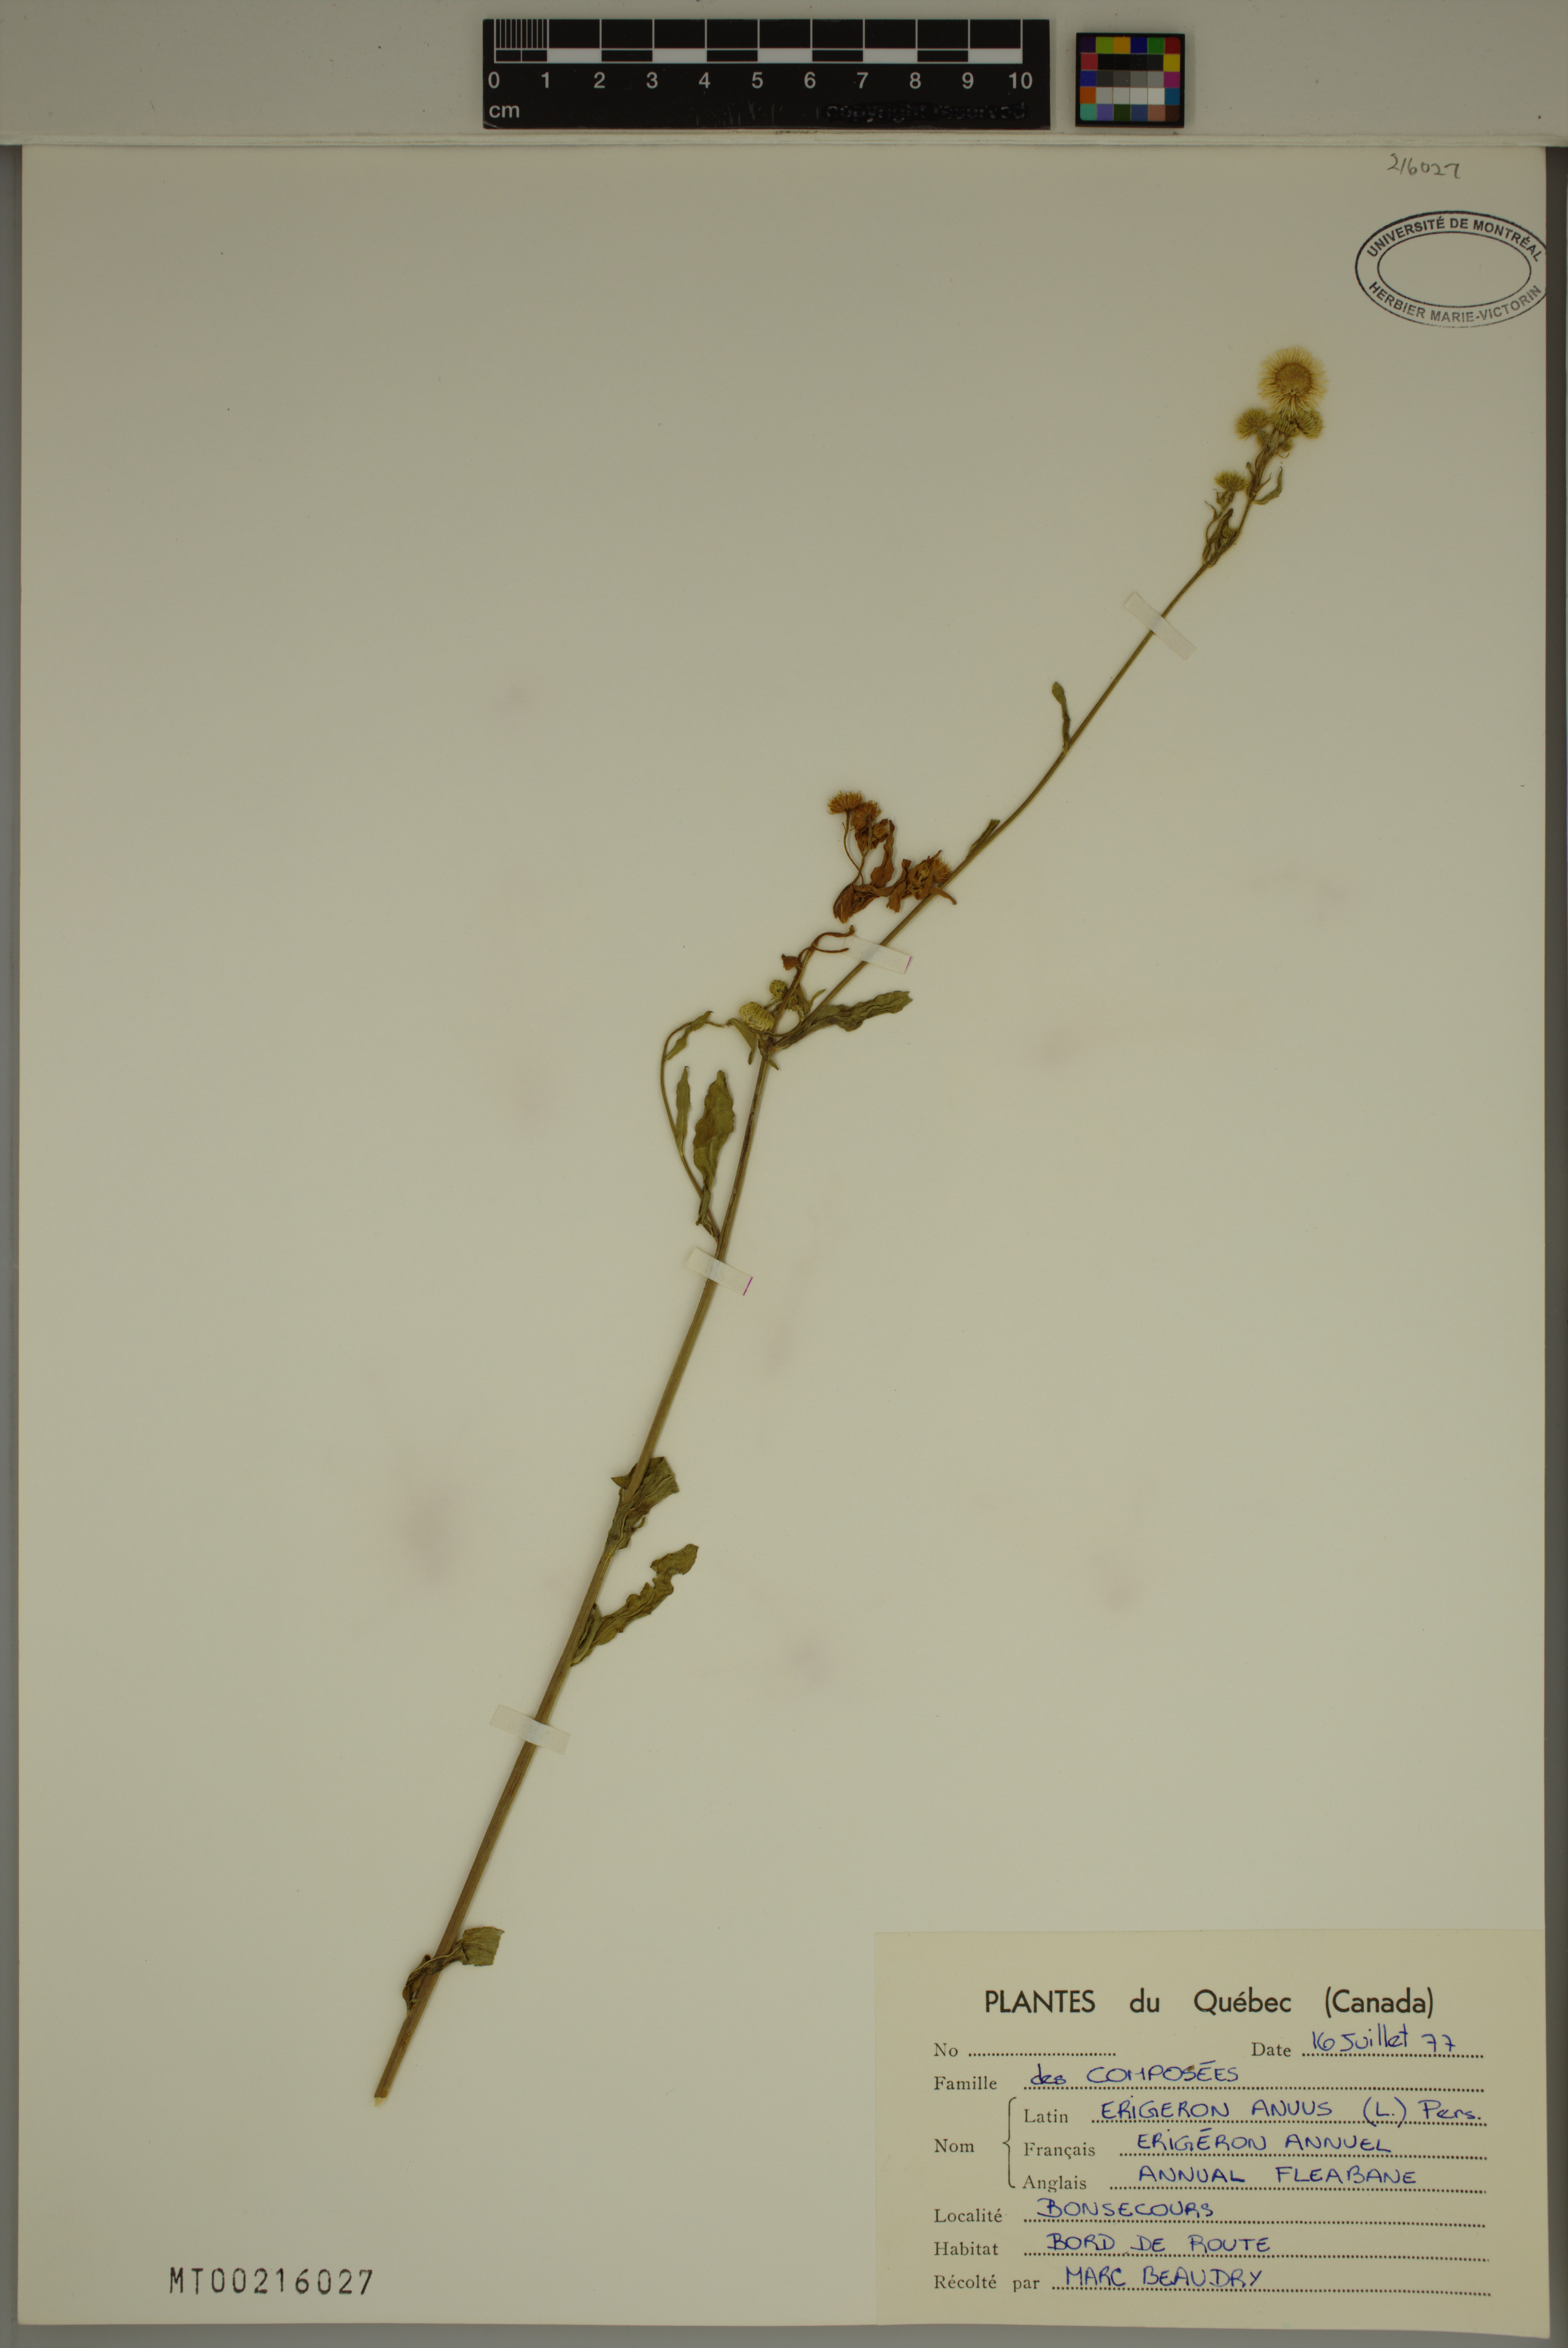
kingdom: Plantae
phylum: Tracheophyta
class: Magnoliopsida
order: Asterales
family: Asteraceae
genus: Erigeron
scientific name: Erigeron annuus
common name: Tall fleabane
